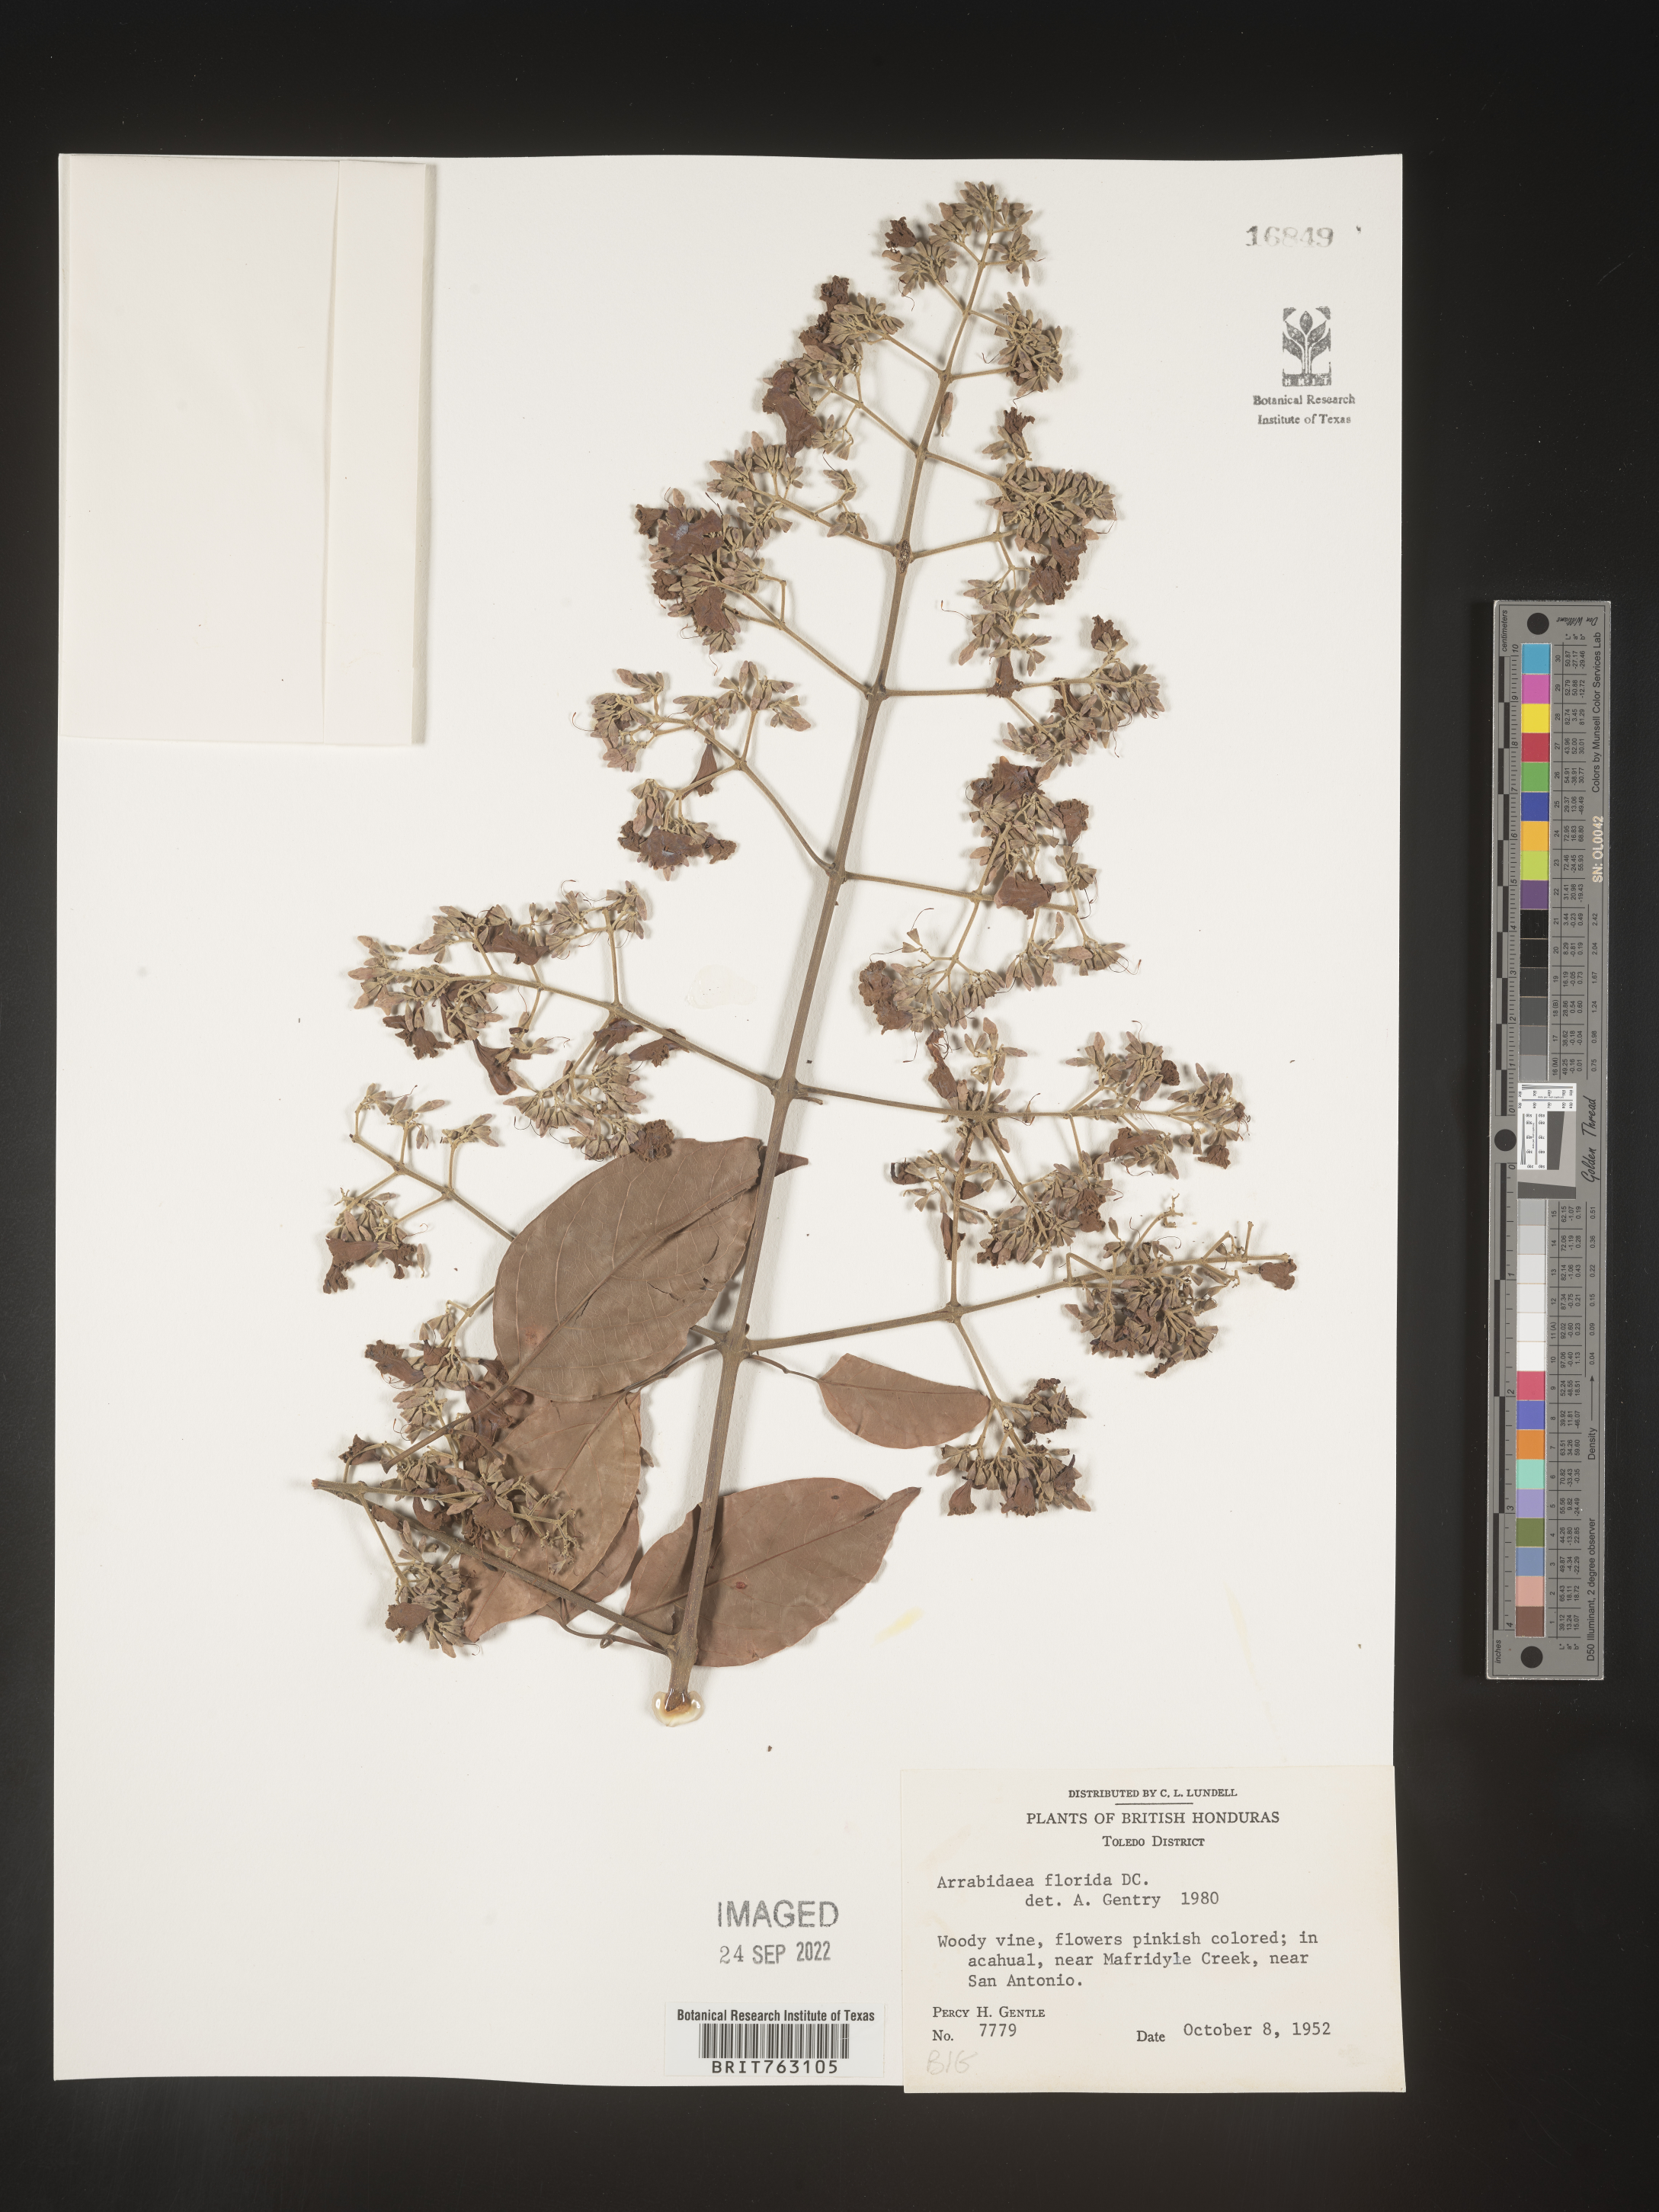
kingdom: Plantae
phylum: Tracheophyta
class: Magnoliopsida
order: Rosales
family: Rhamnaceae
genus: Arrabidaea
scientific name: Arrabidaea
